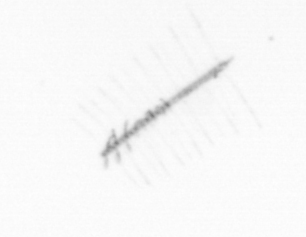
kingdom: Chromista
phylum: Ochrophyta
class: Bacillariophyceae
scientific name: Bacillariophyceae
